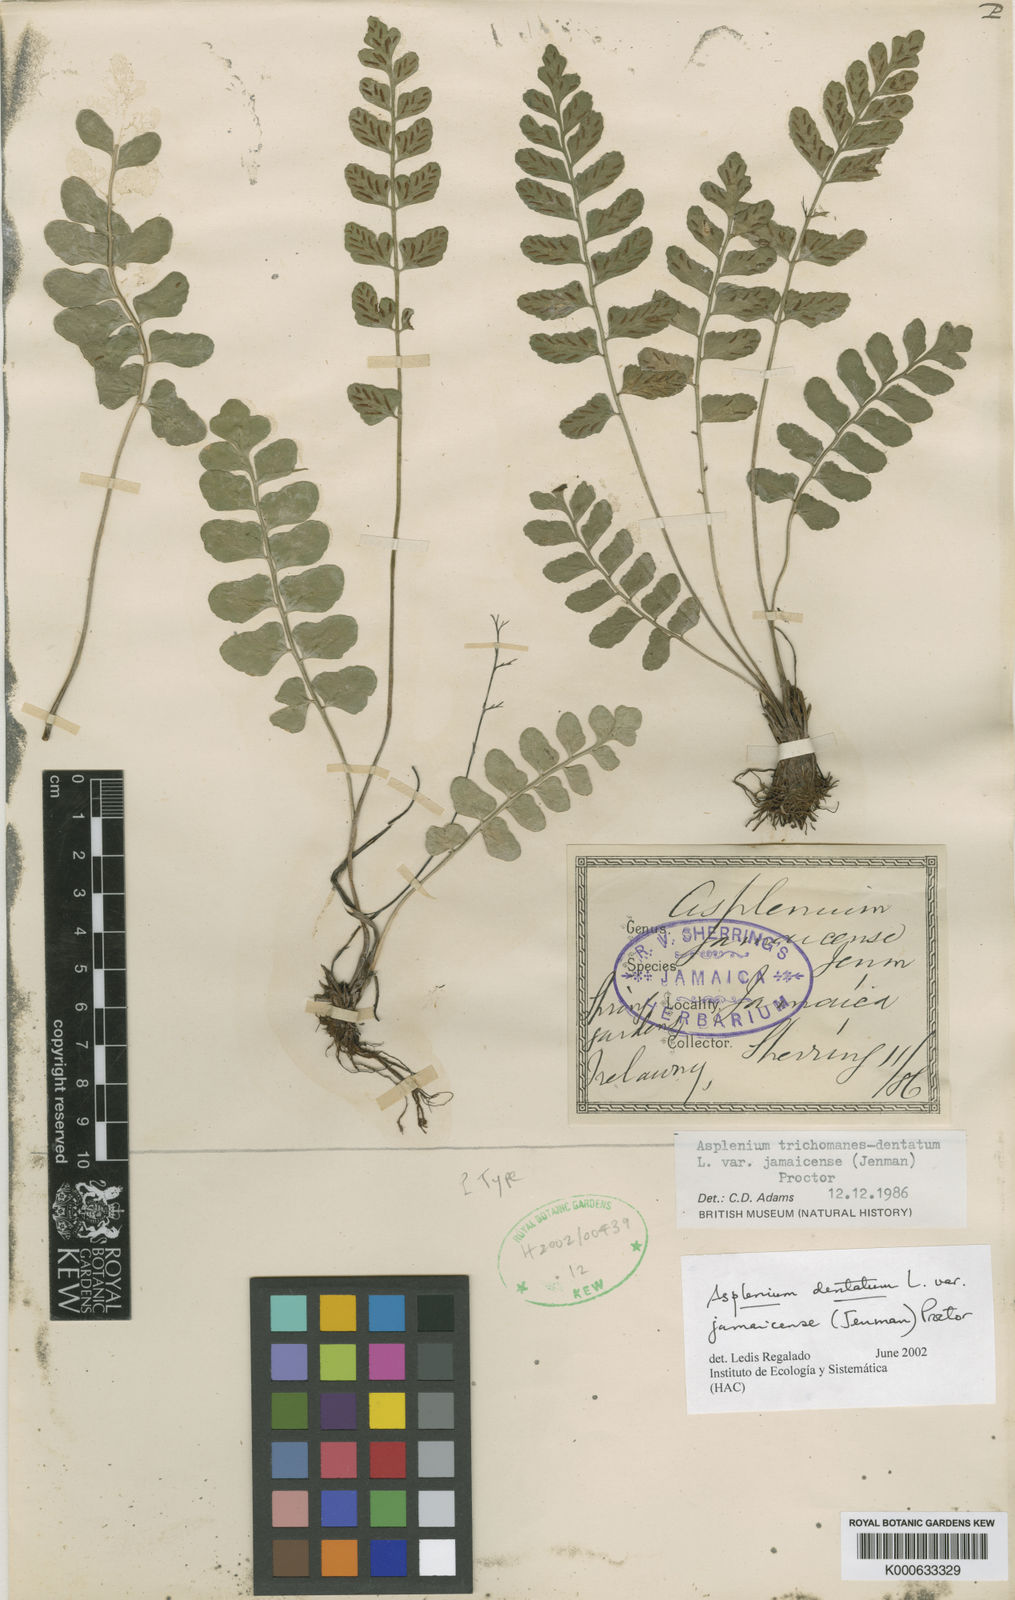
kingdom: Plantae
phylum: Tracheophyta
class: Polypodiopsida
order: Polypodiales
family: Aspleniaceae
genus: Asplenium
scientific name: Asplenium dentatum
